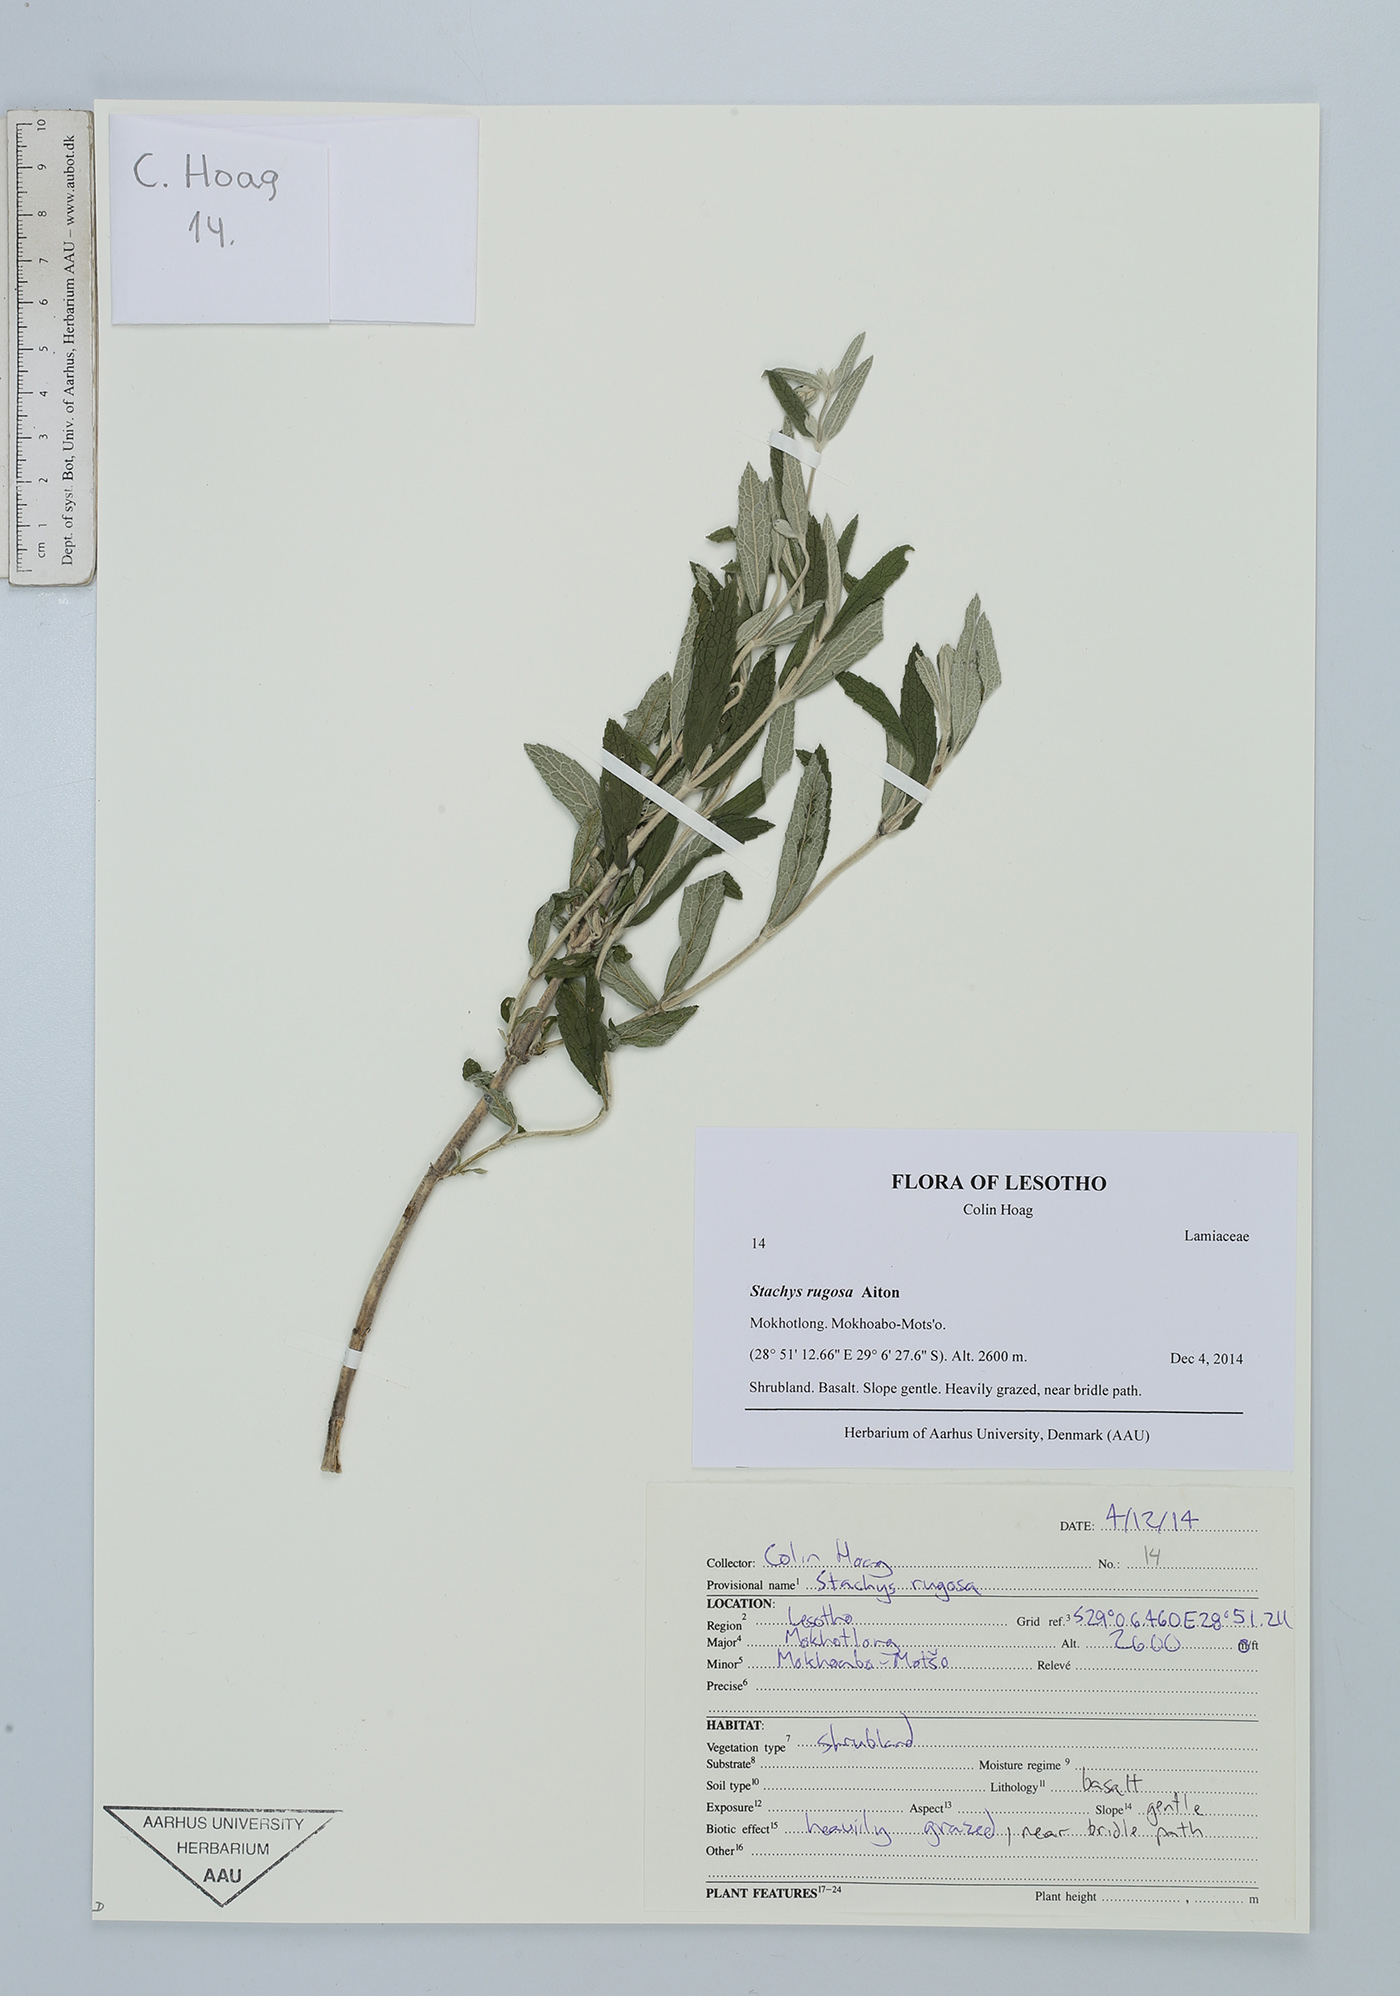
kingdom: Plantae
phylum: Tracheophyta
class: Magnoliopsida
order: Lamiales
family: Lamiaceae
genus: Stachys
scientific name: Stachys rugosa
